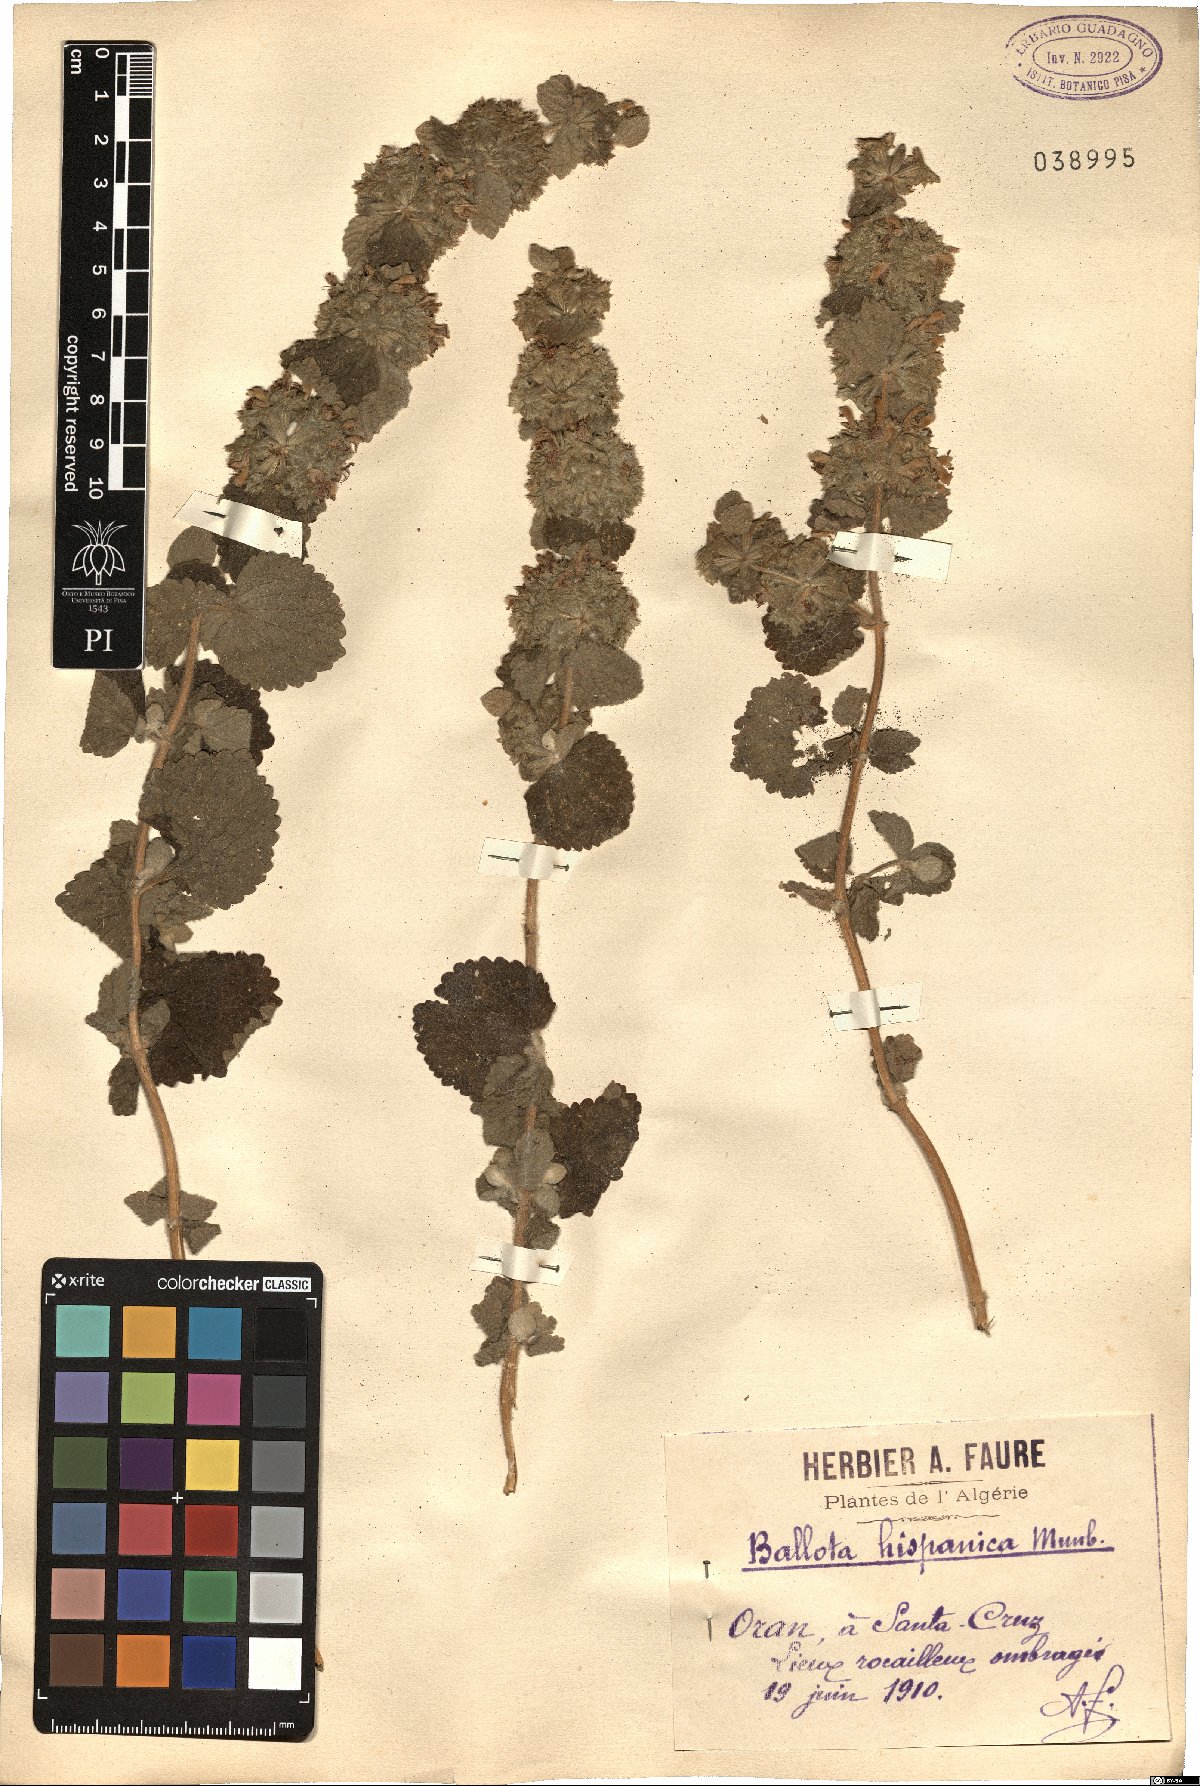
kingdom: Plantae
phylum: Tracheophyta
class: Magnoliopsida
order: Lamiales
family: Lamiaceae
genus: Pseudodictamnus
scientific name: Pseudodictamnus hispanicus
